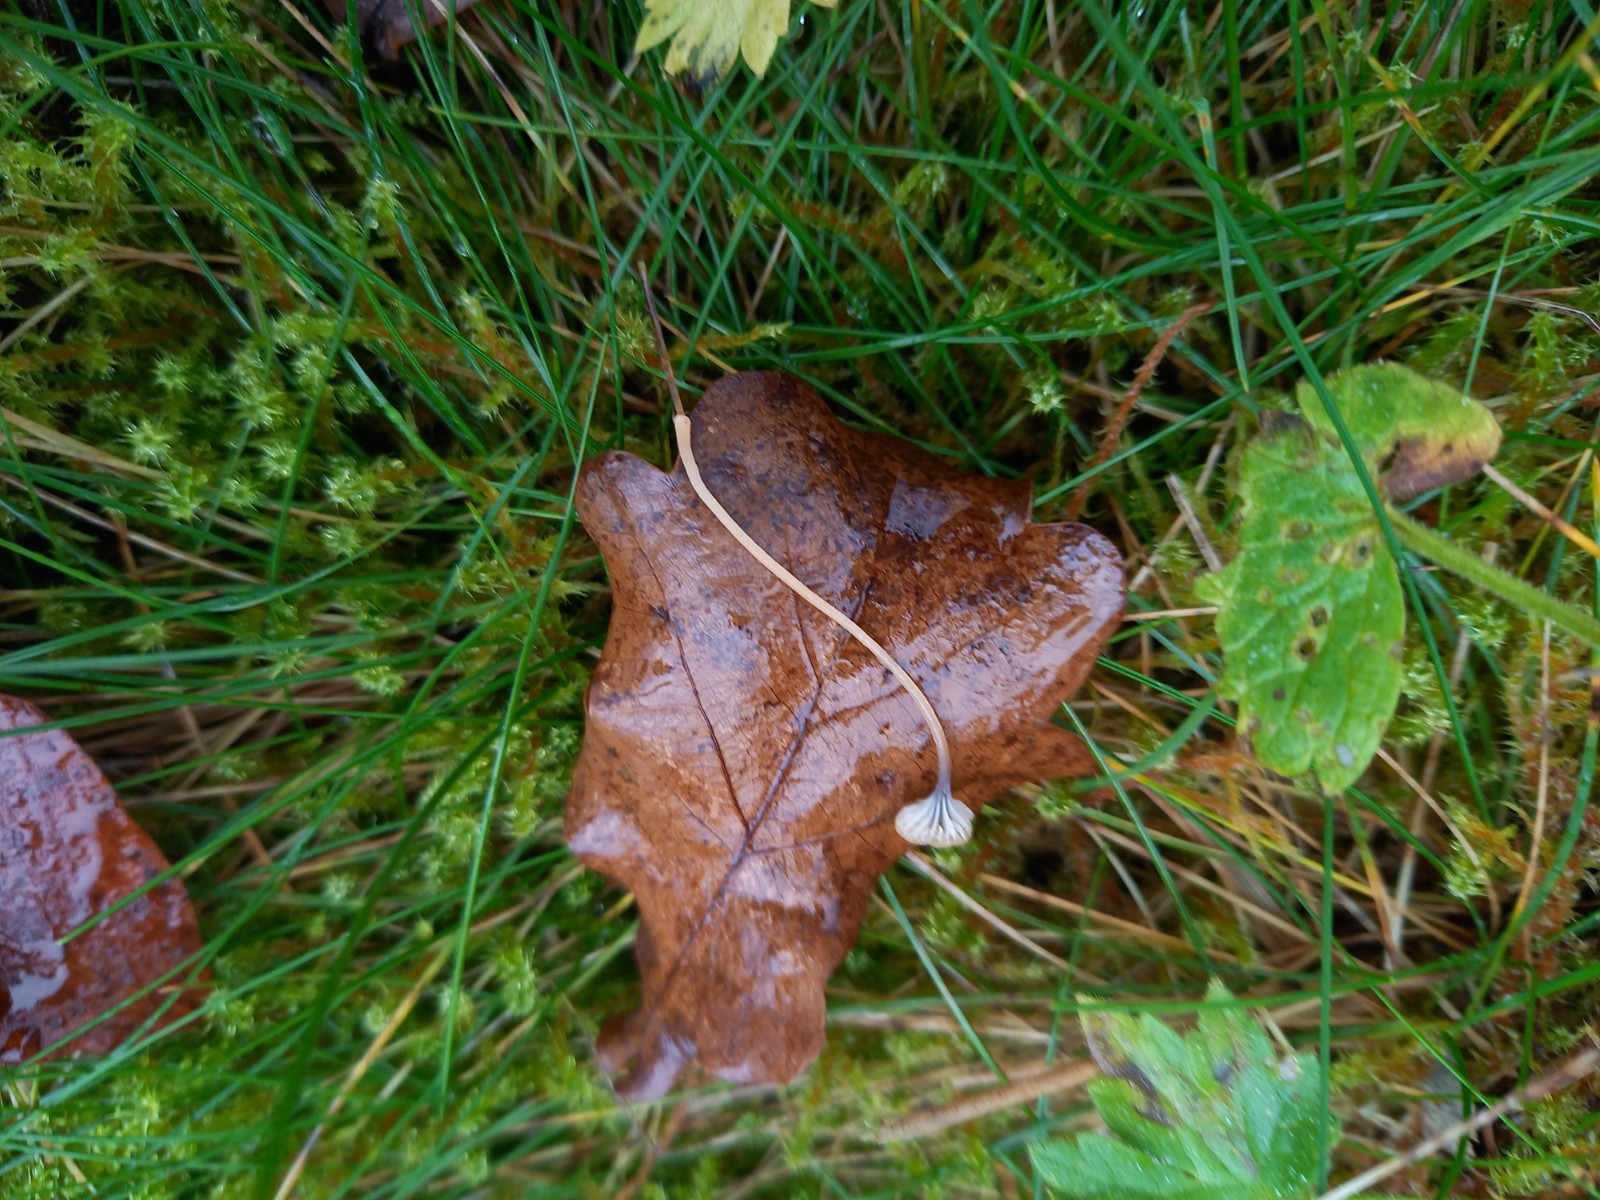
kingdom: Fungi
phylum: Basidiomycota
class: Agaricomycetes
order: Hymenochaetales
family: Rickenellaceae
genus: Rickenella
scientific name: Rickenella swartzii
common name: finstokket mosnavlehat
